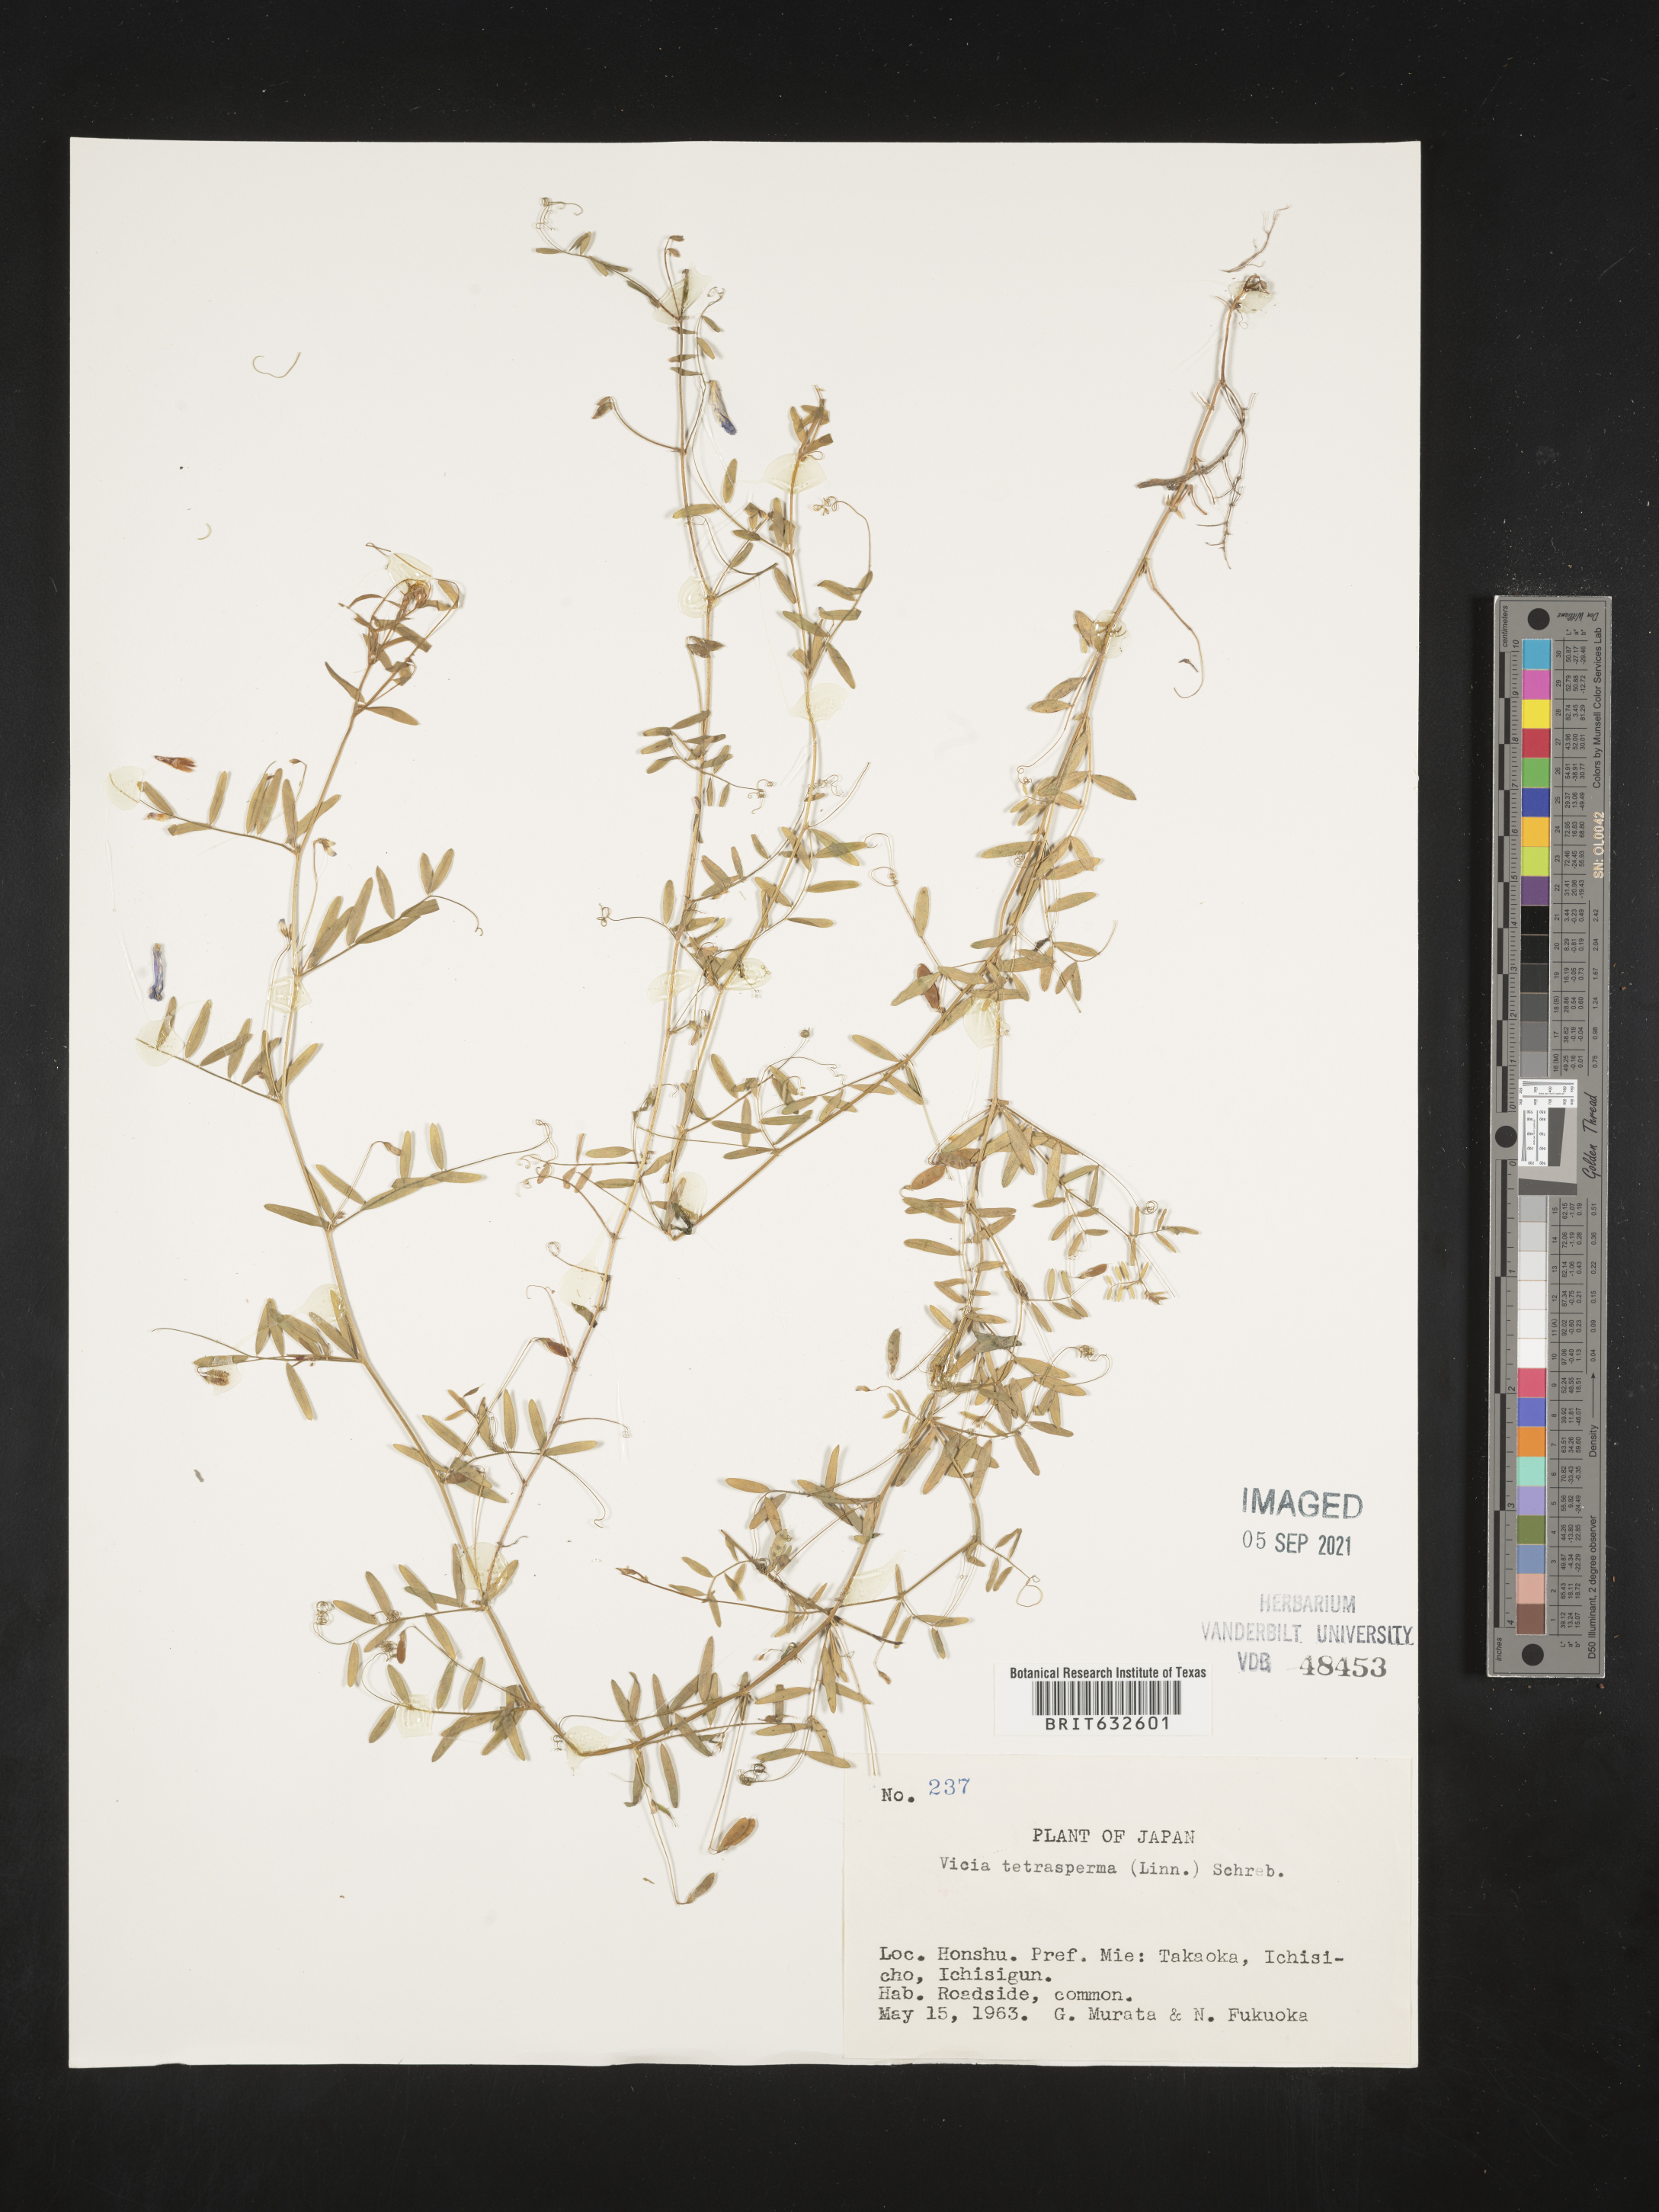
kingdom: Plantae
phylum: Tracheophyta
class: Magnoliopsida
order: Fabales
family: Fabaceae
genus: Vicia
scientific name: Vicia
